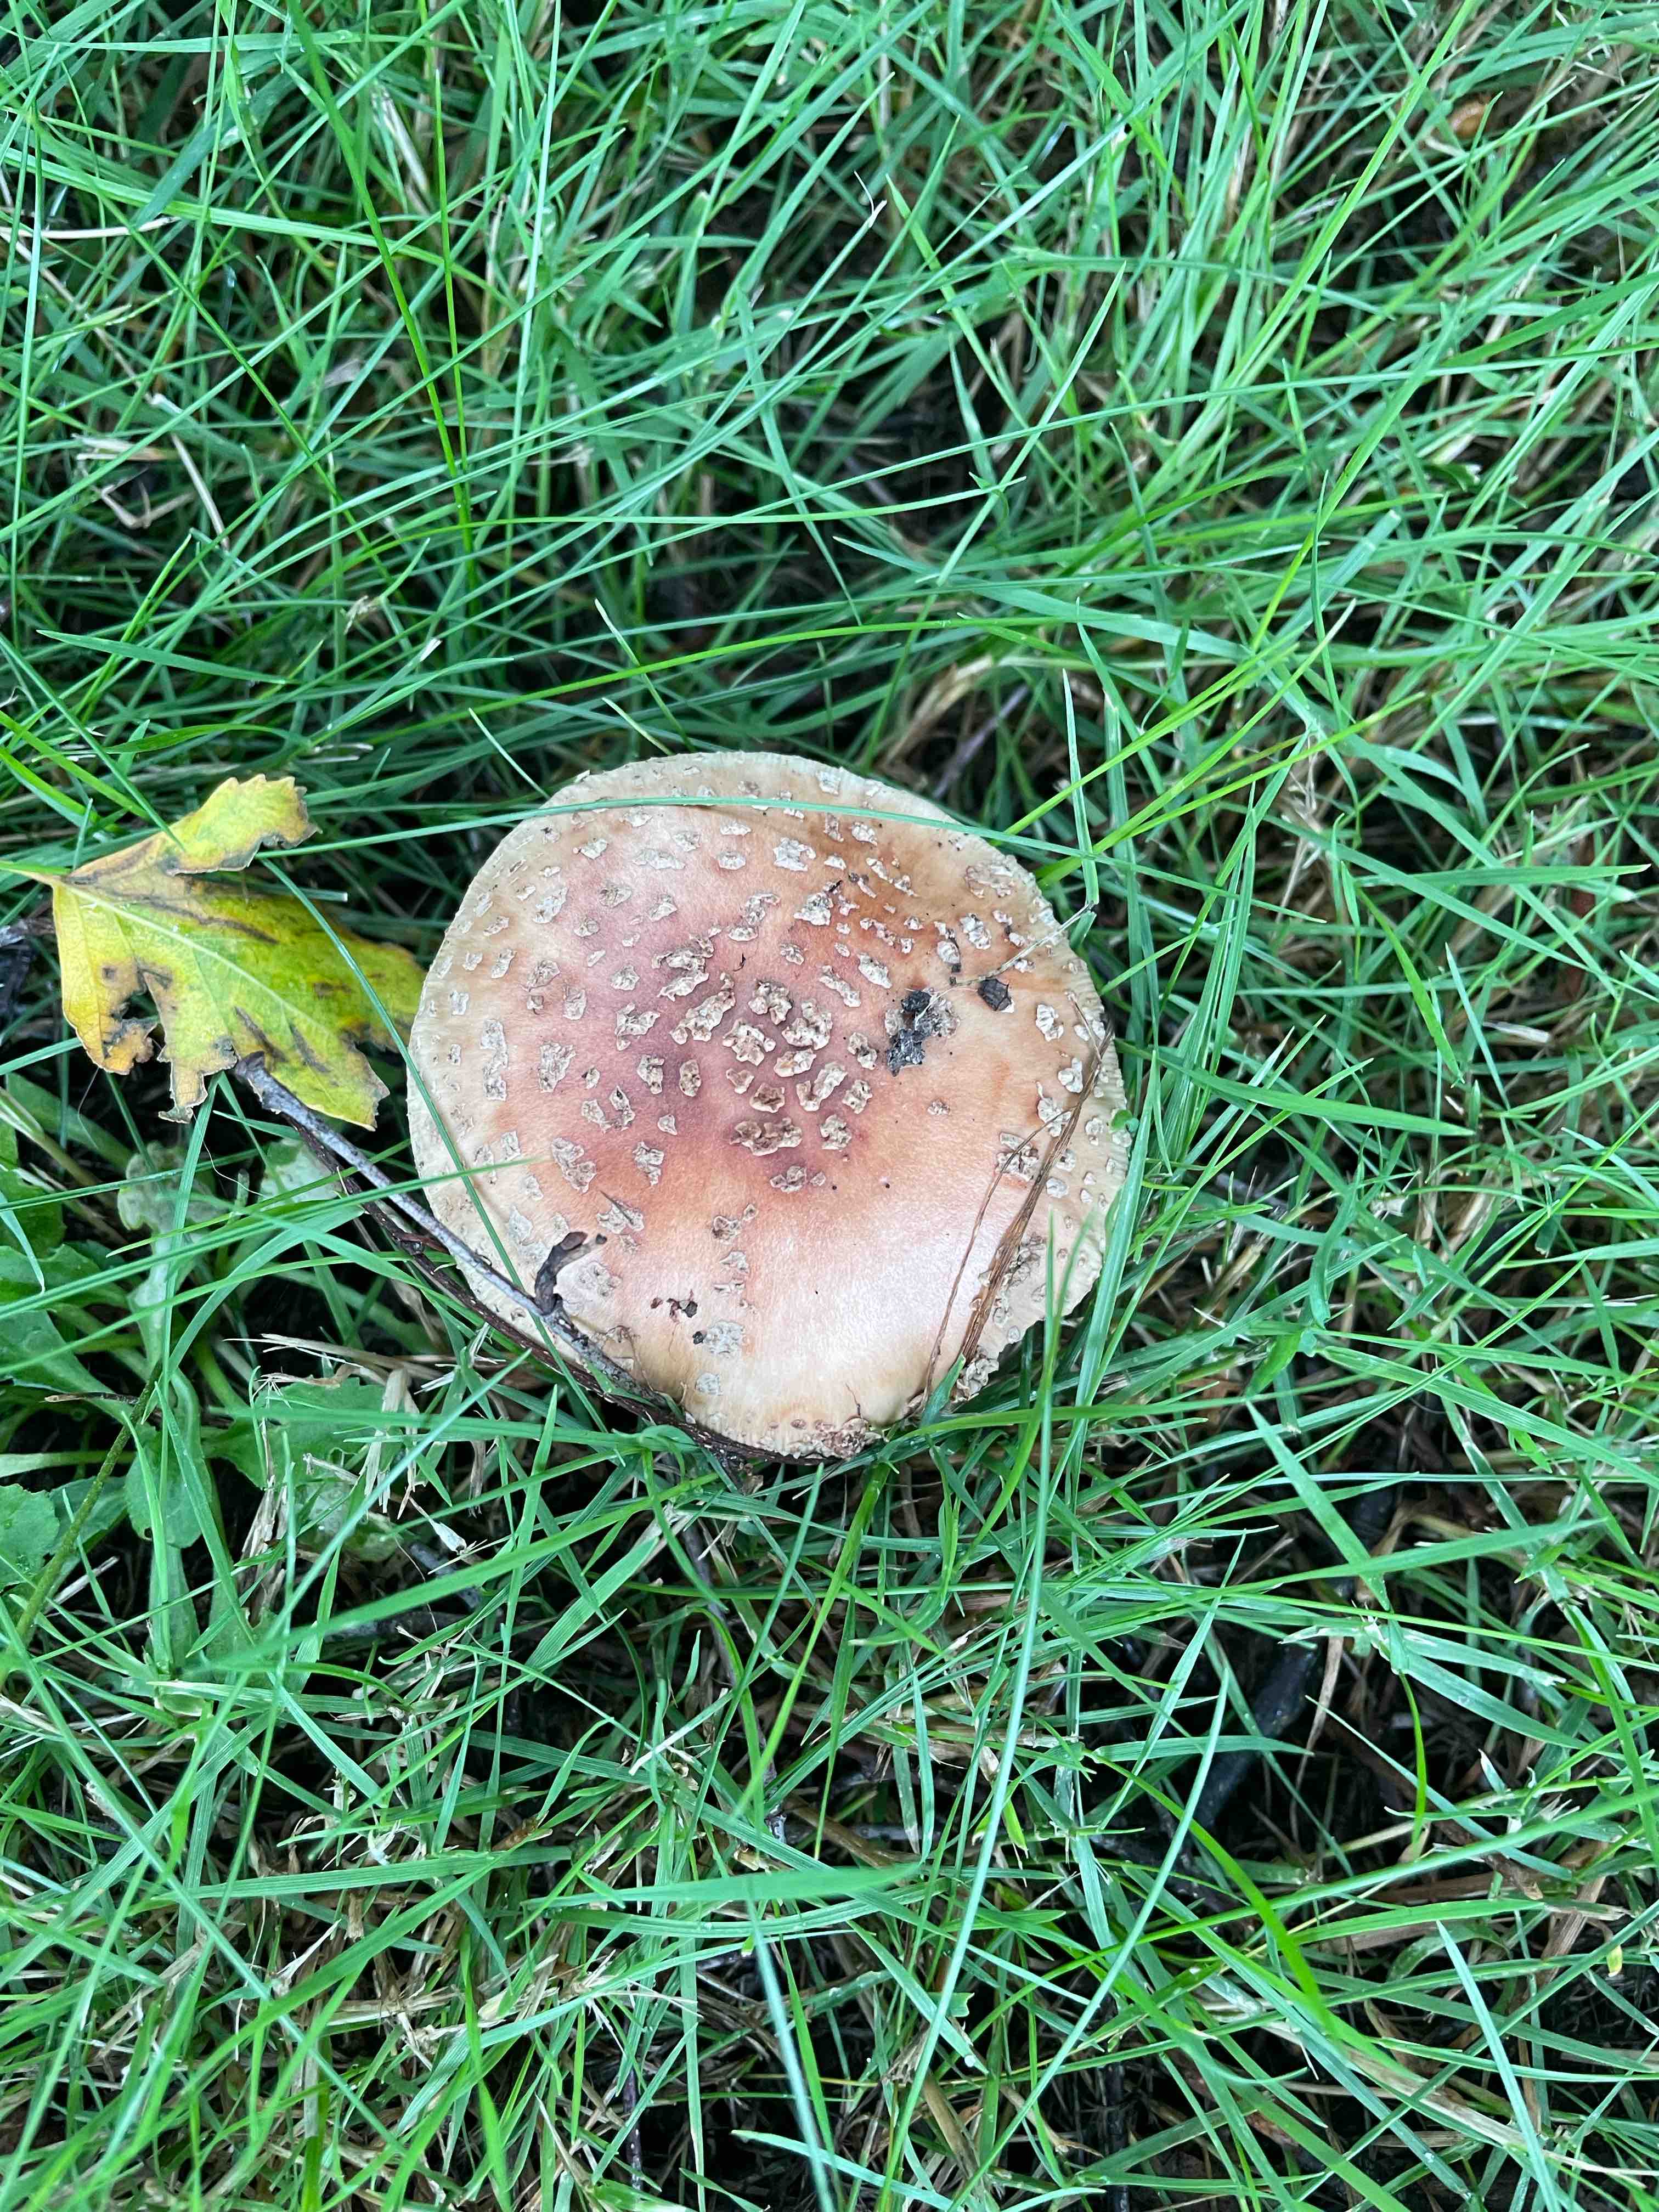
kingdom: Fungi
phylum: Basidiomycota
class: Agaricomycetes
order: Agaricales
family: Amanitaceae
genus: Amanita
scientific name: Amanita rubescens
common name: rødmende fluesvamp
